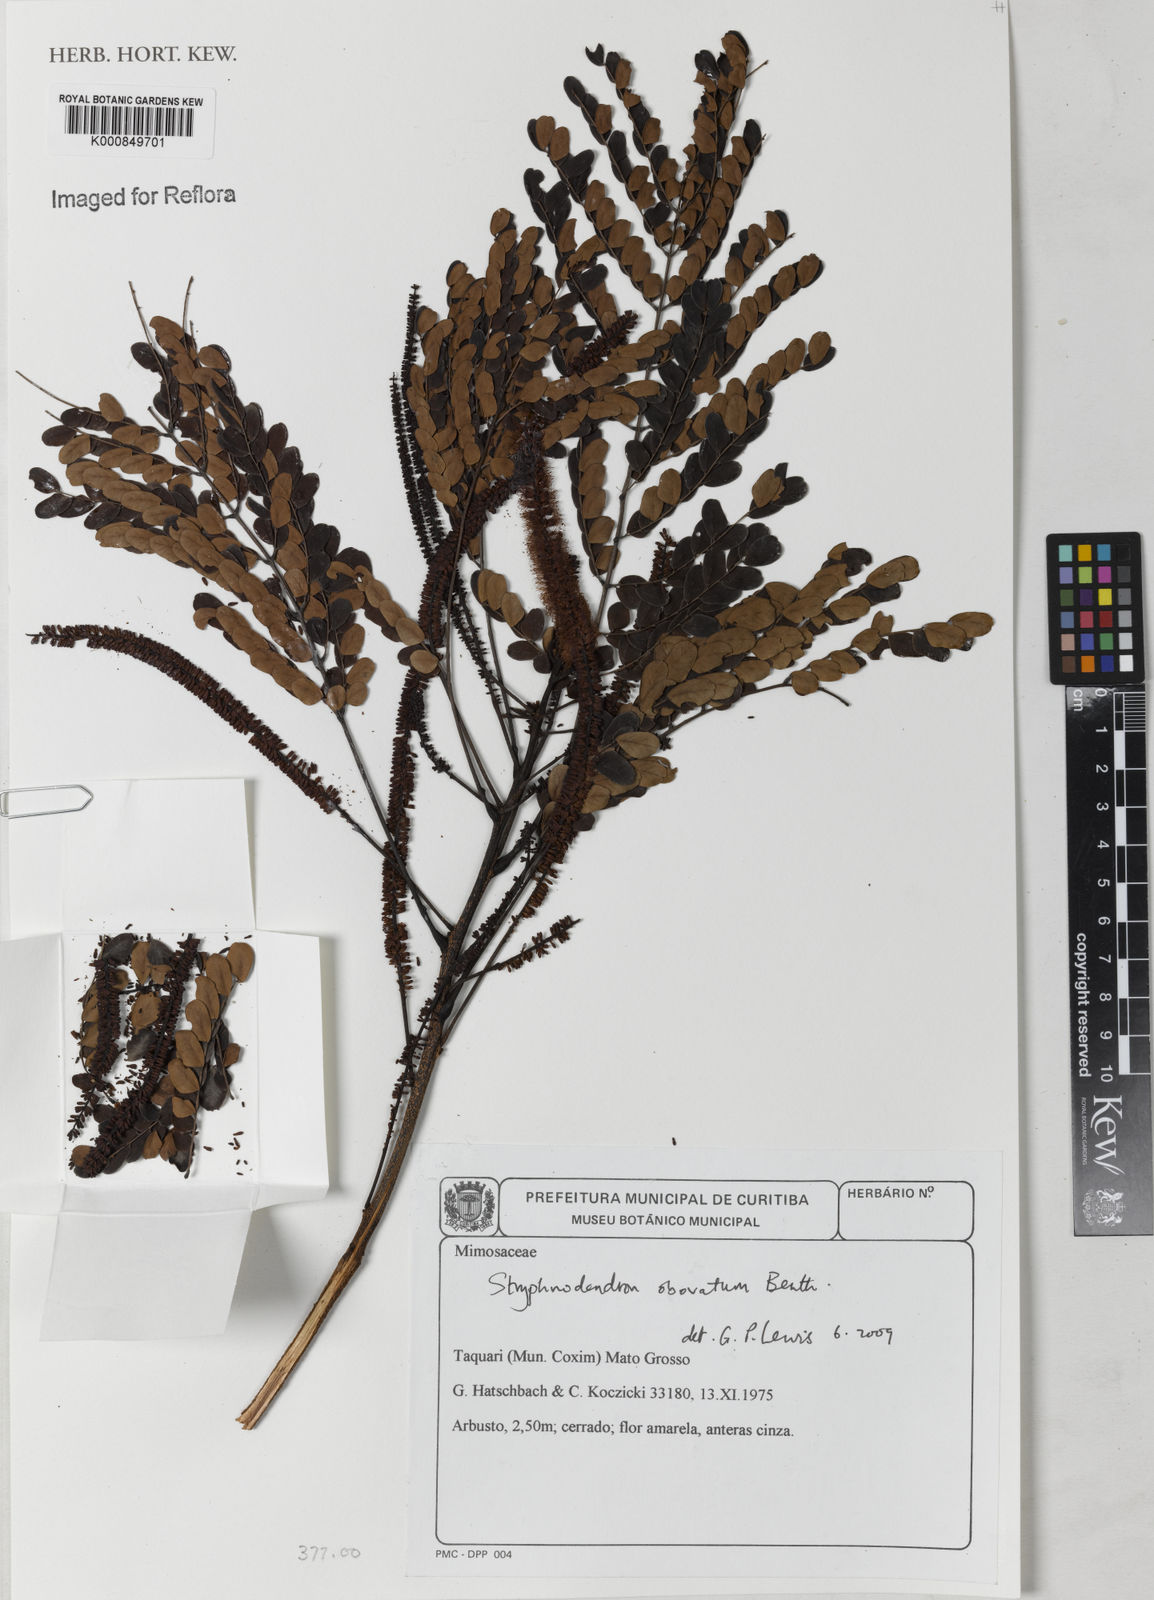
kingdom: Plantae
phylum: Tracheophyta
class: Magnoliopsida
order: Fabales
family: Fabaceae
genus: Stryphnodendron
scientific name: Stryphnodendron rotundifolium
